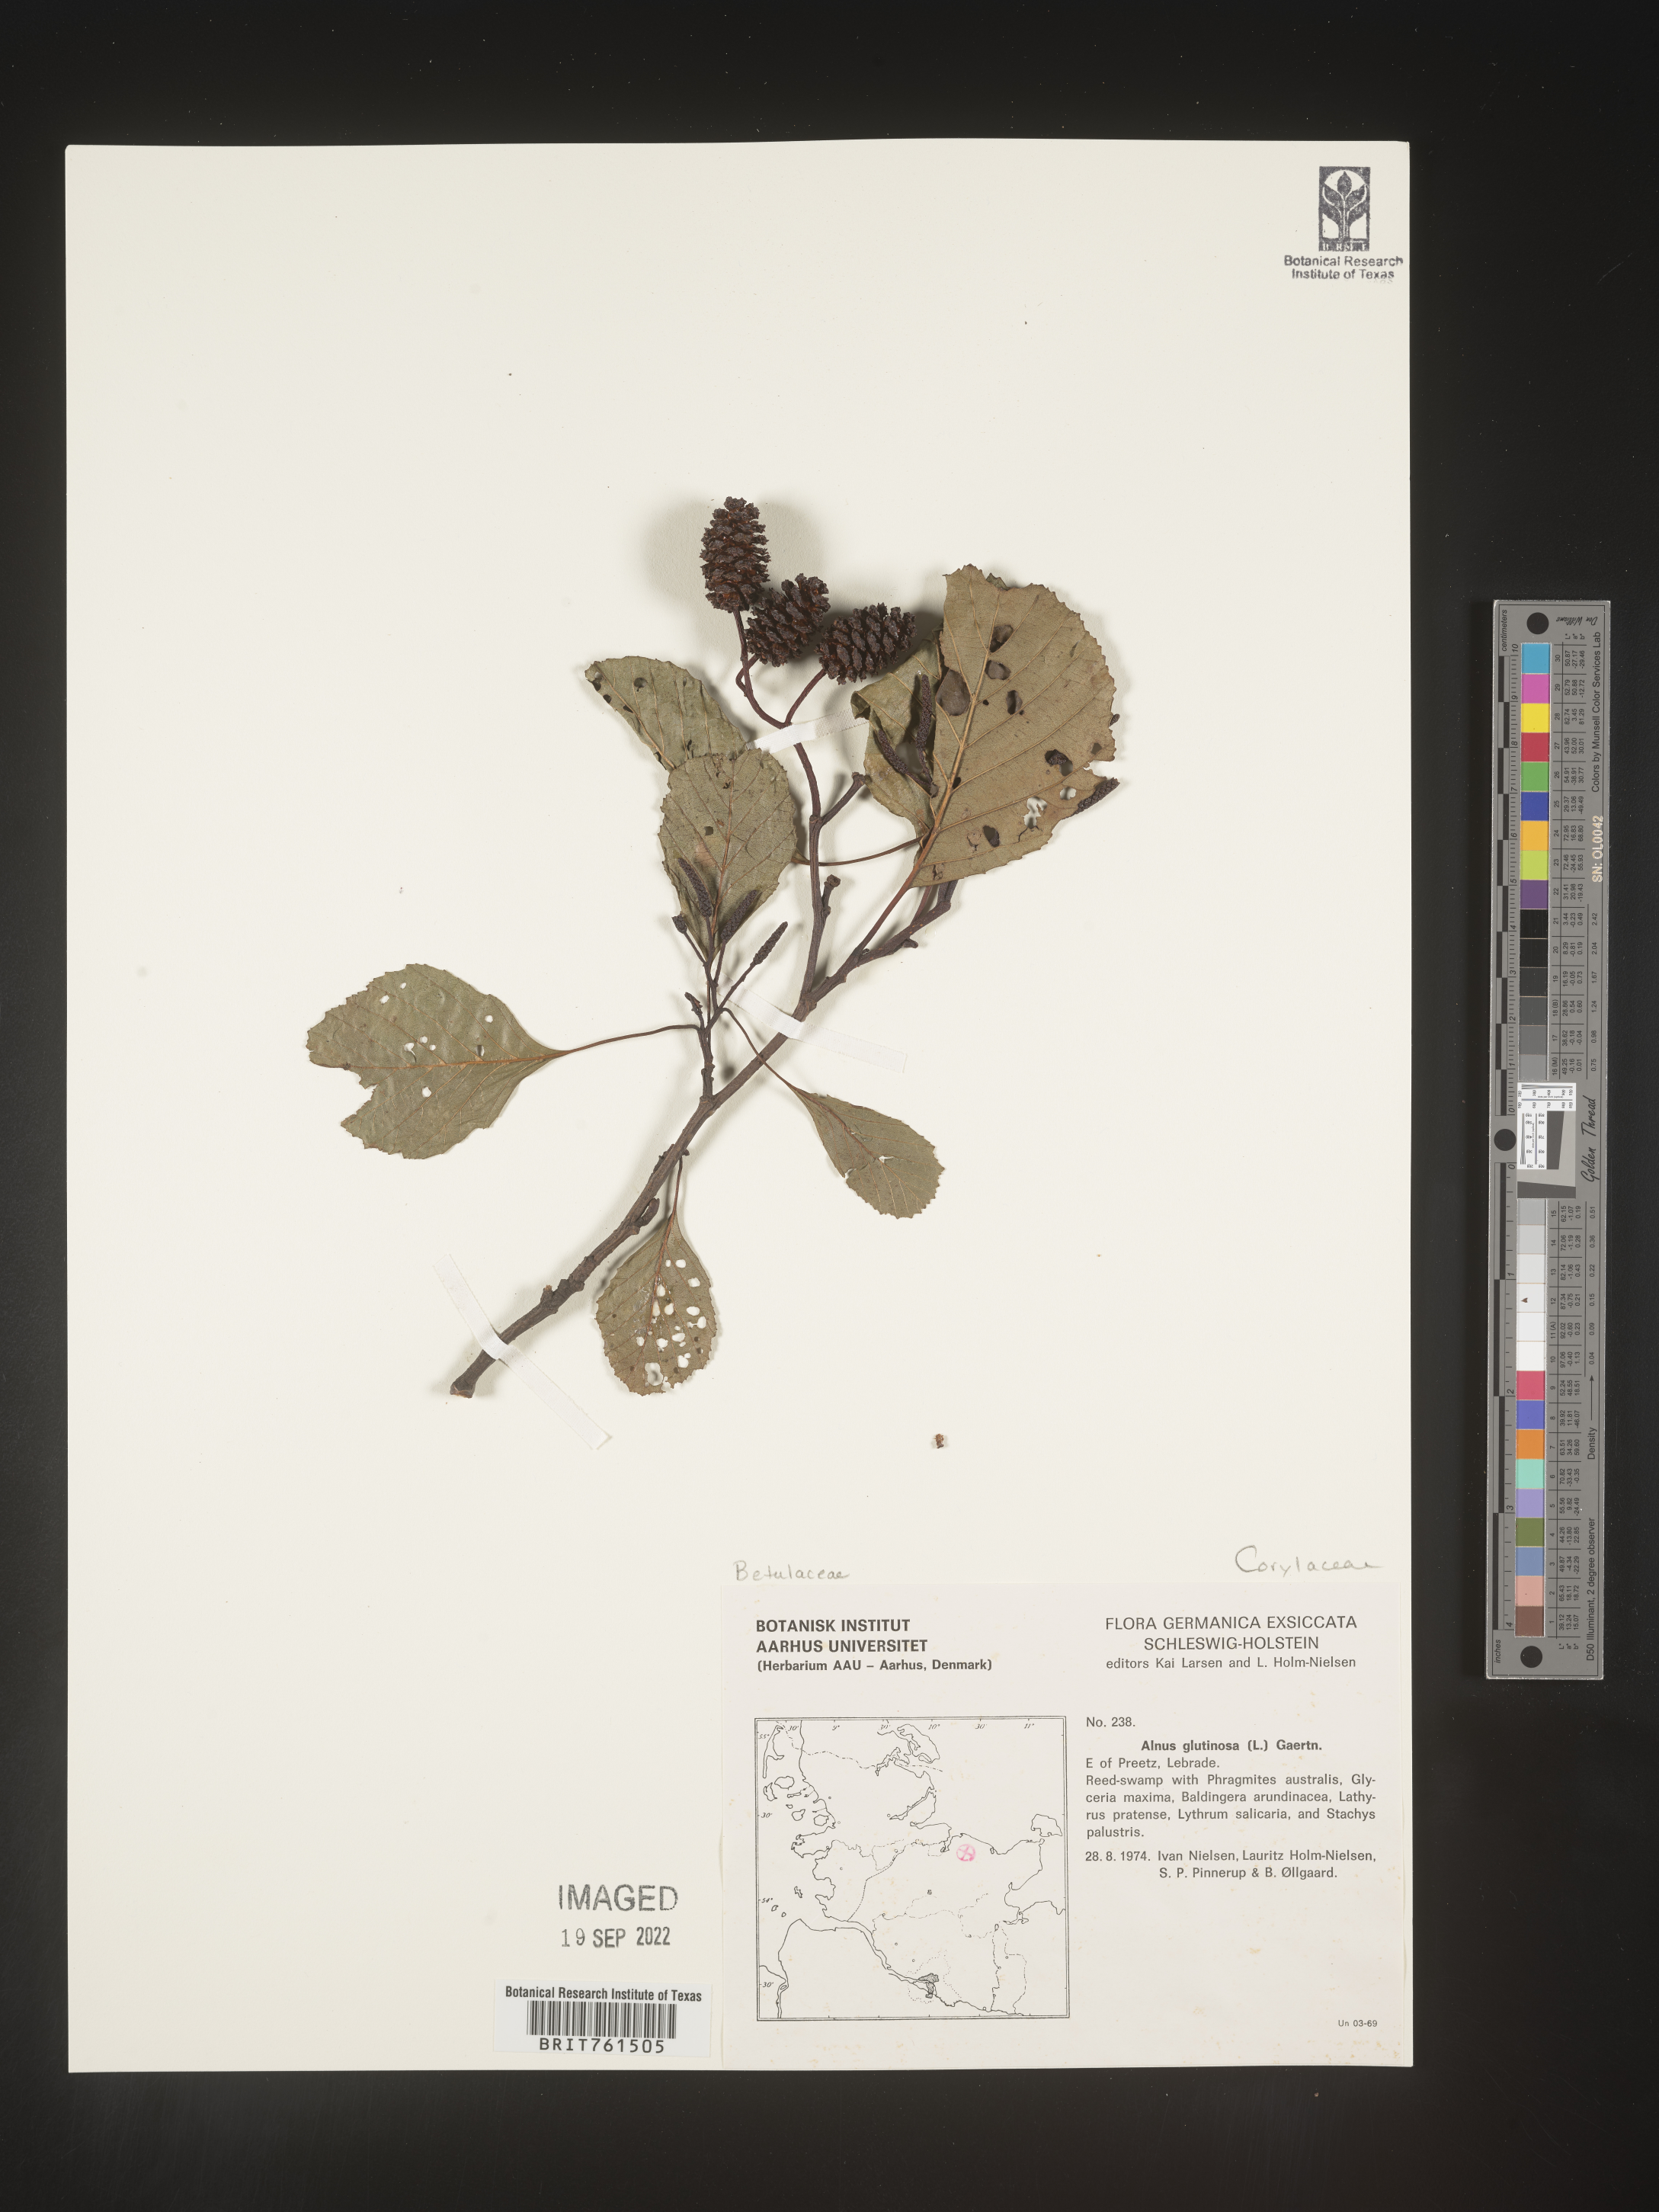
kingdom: Plantae
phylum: Tracheophyta
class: Magnoliopsida
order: Fagales
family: Betulaceae
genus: Alnus
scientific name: Alnus
